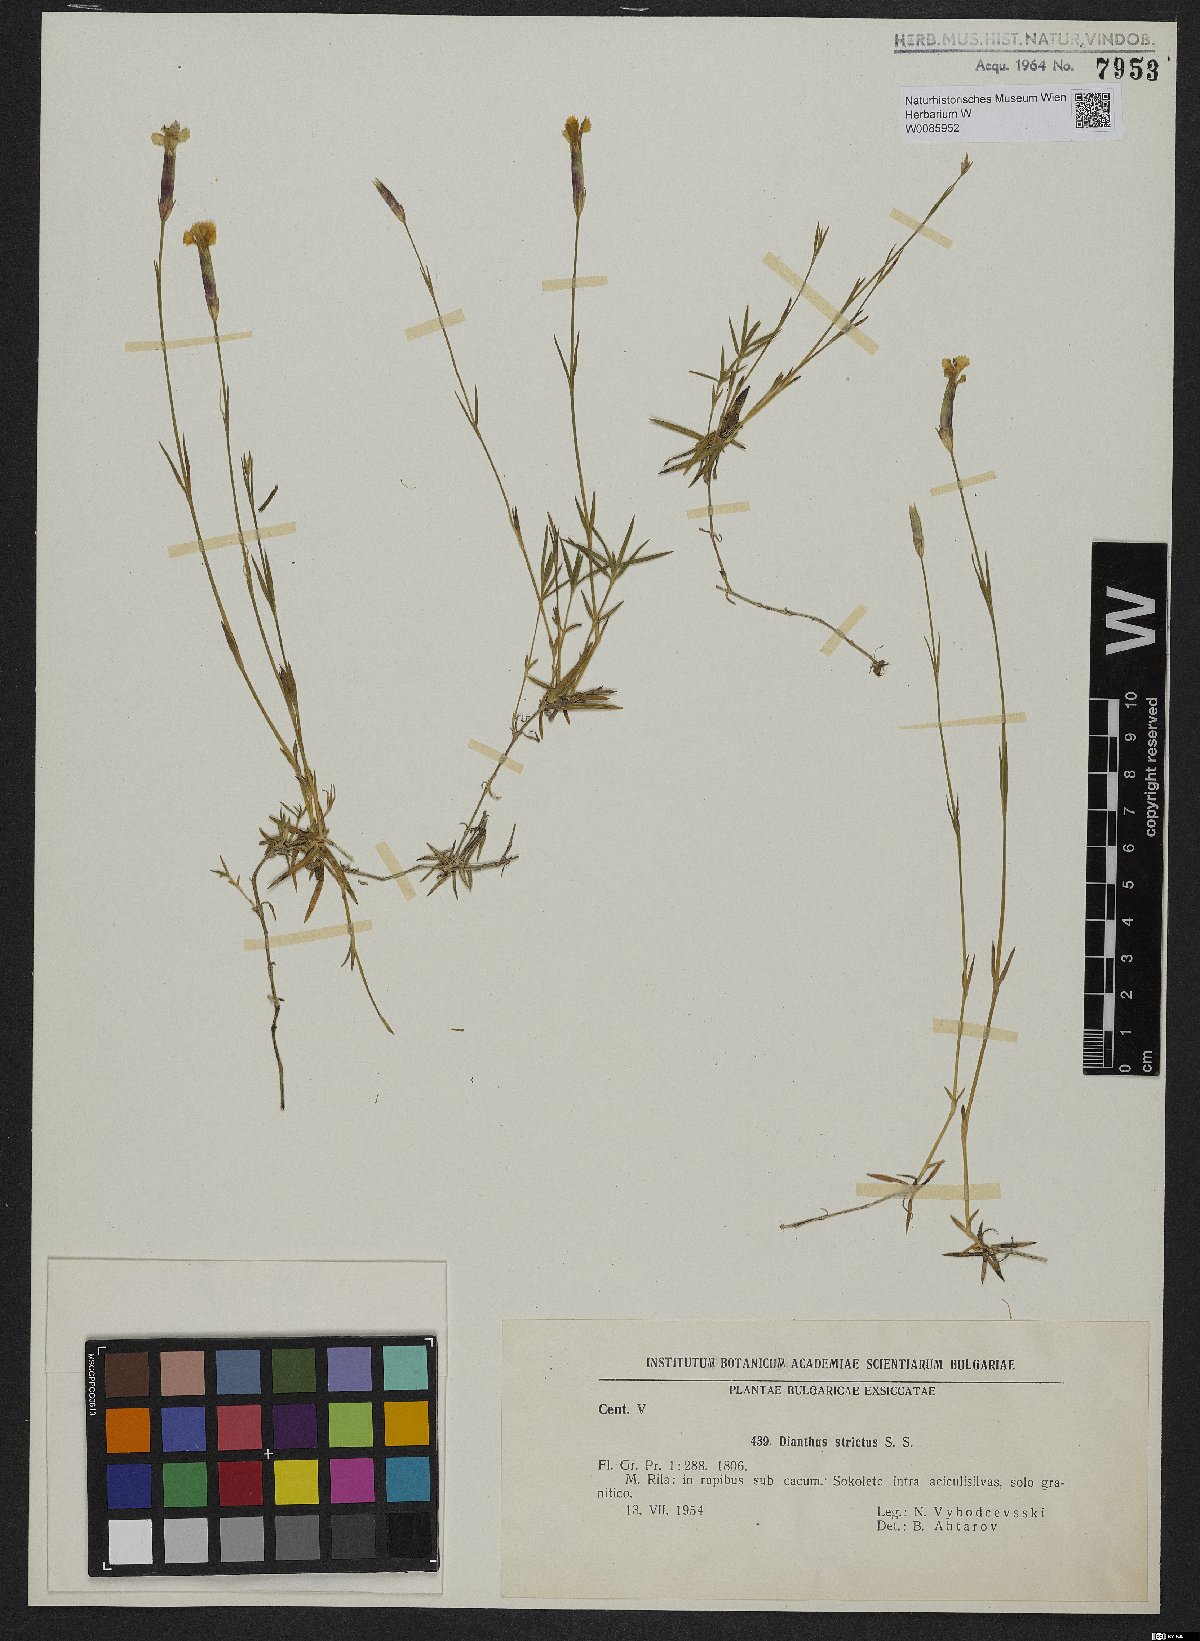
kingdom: Plantae
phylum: Tracheophyta
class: Magnoliopsida
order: Caryophyllales
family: Caryophyllaceae
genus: Dianthus
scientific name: Dianthus petraeus
